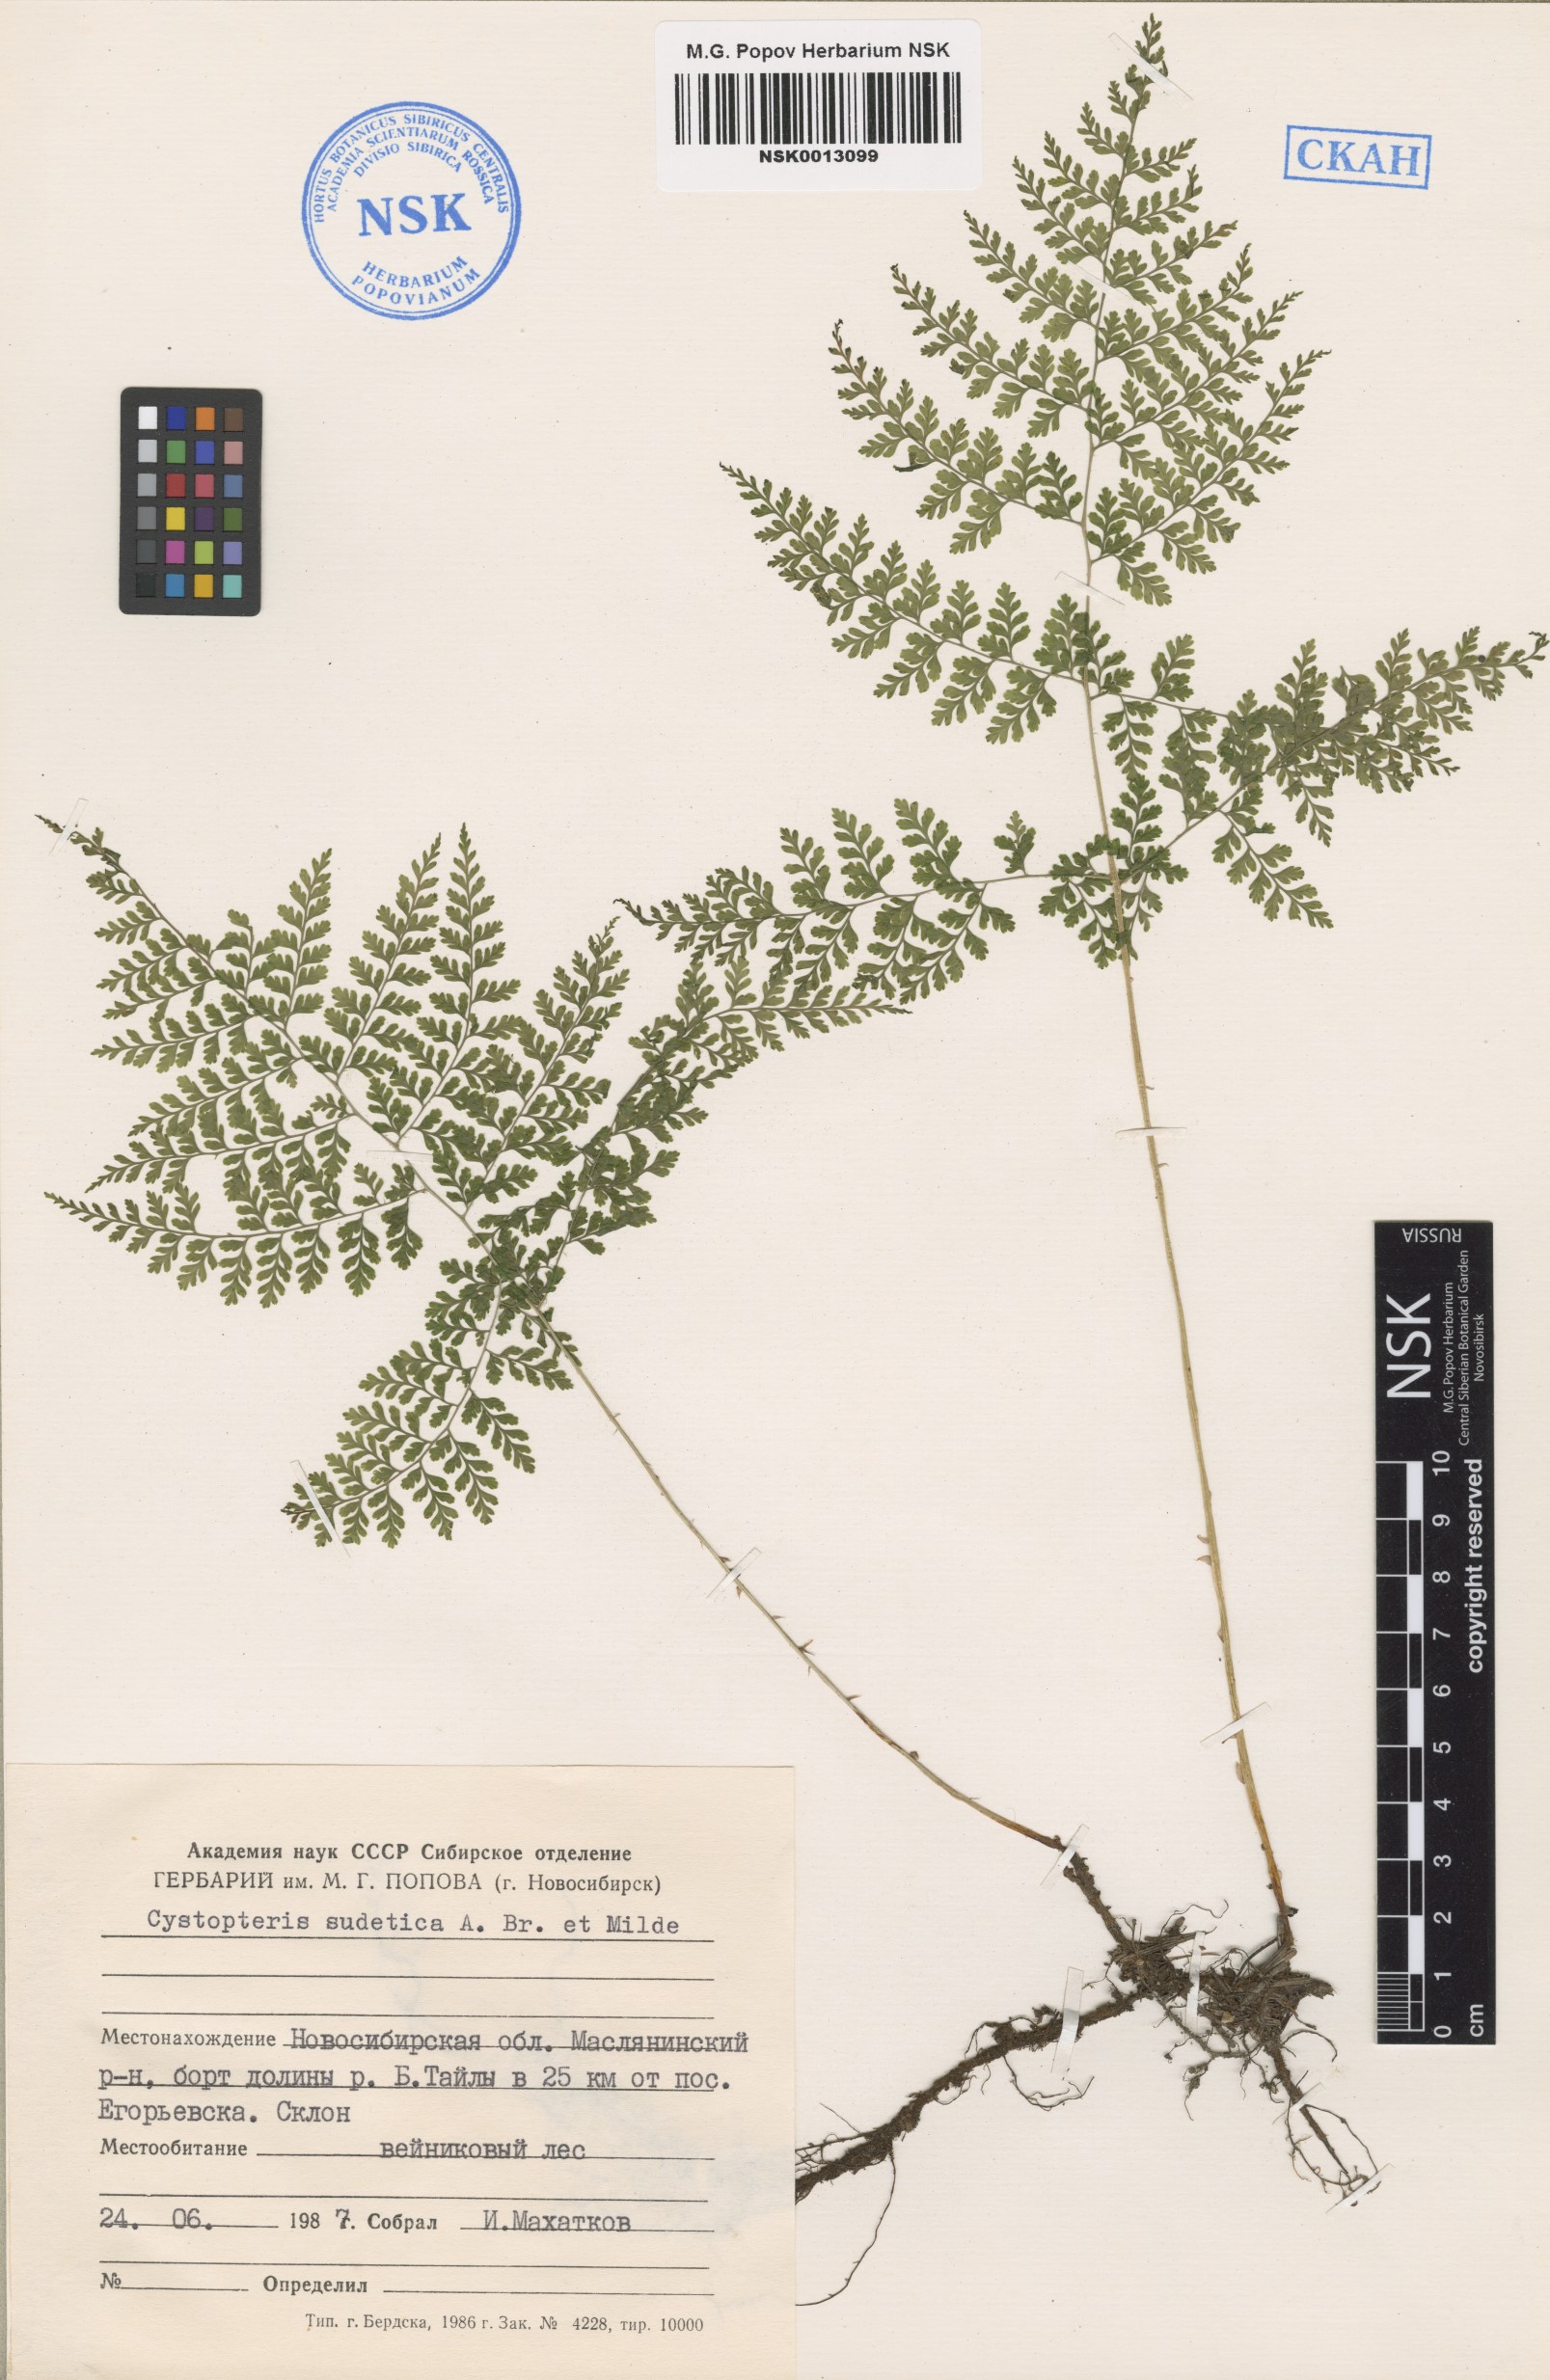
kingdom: Plantae
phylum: Tracheophyta
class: Polypodiopsida
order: Polypodiales
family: Cystopteridaceae
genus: Cystopteris
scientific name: Cystopteris sudetica
